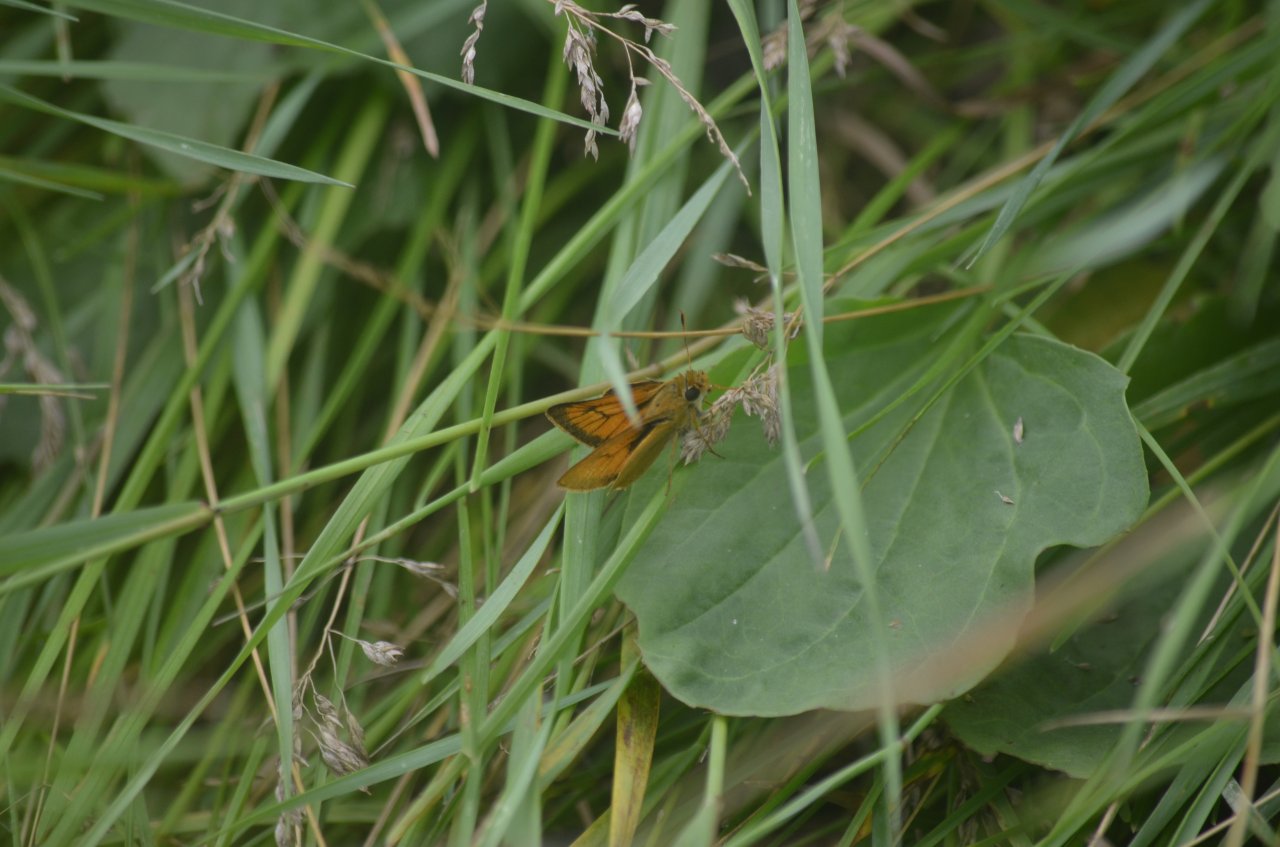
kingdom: Animalia
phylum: Arthropoda
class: Insecta
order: Lepidoptera
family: Hesperiidae
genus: Atrytone
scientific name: Atrytone delaware
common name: Delaware Skipper
